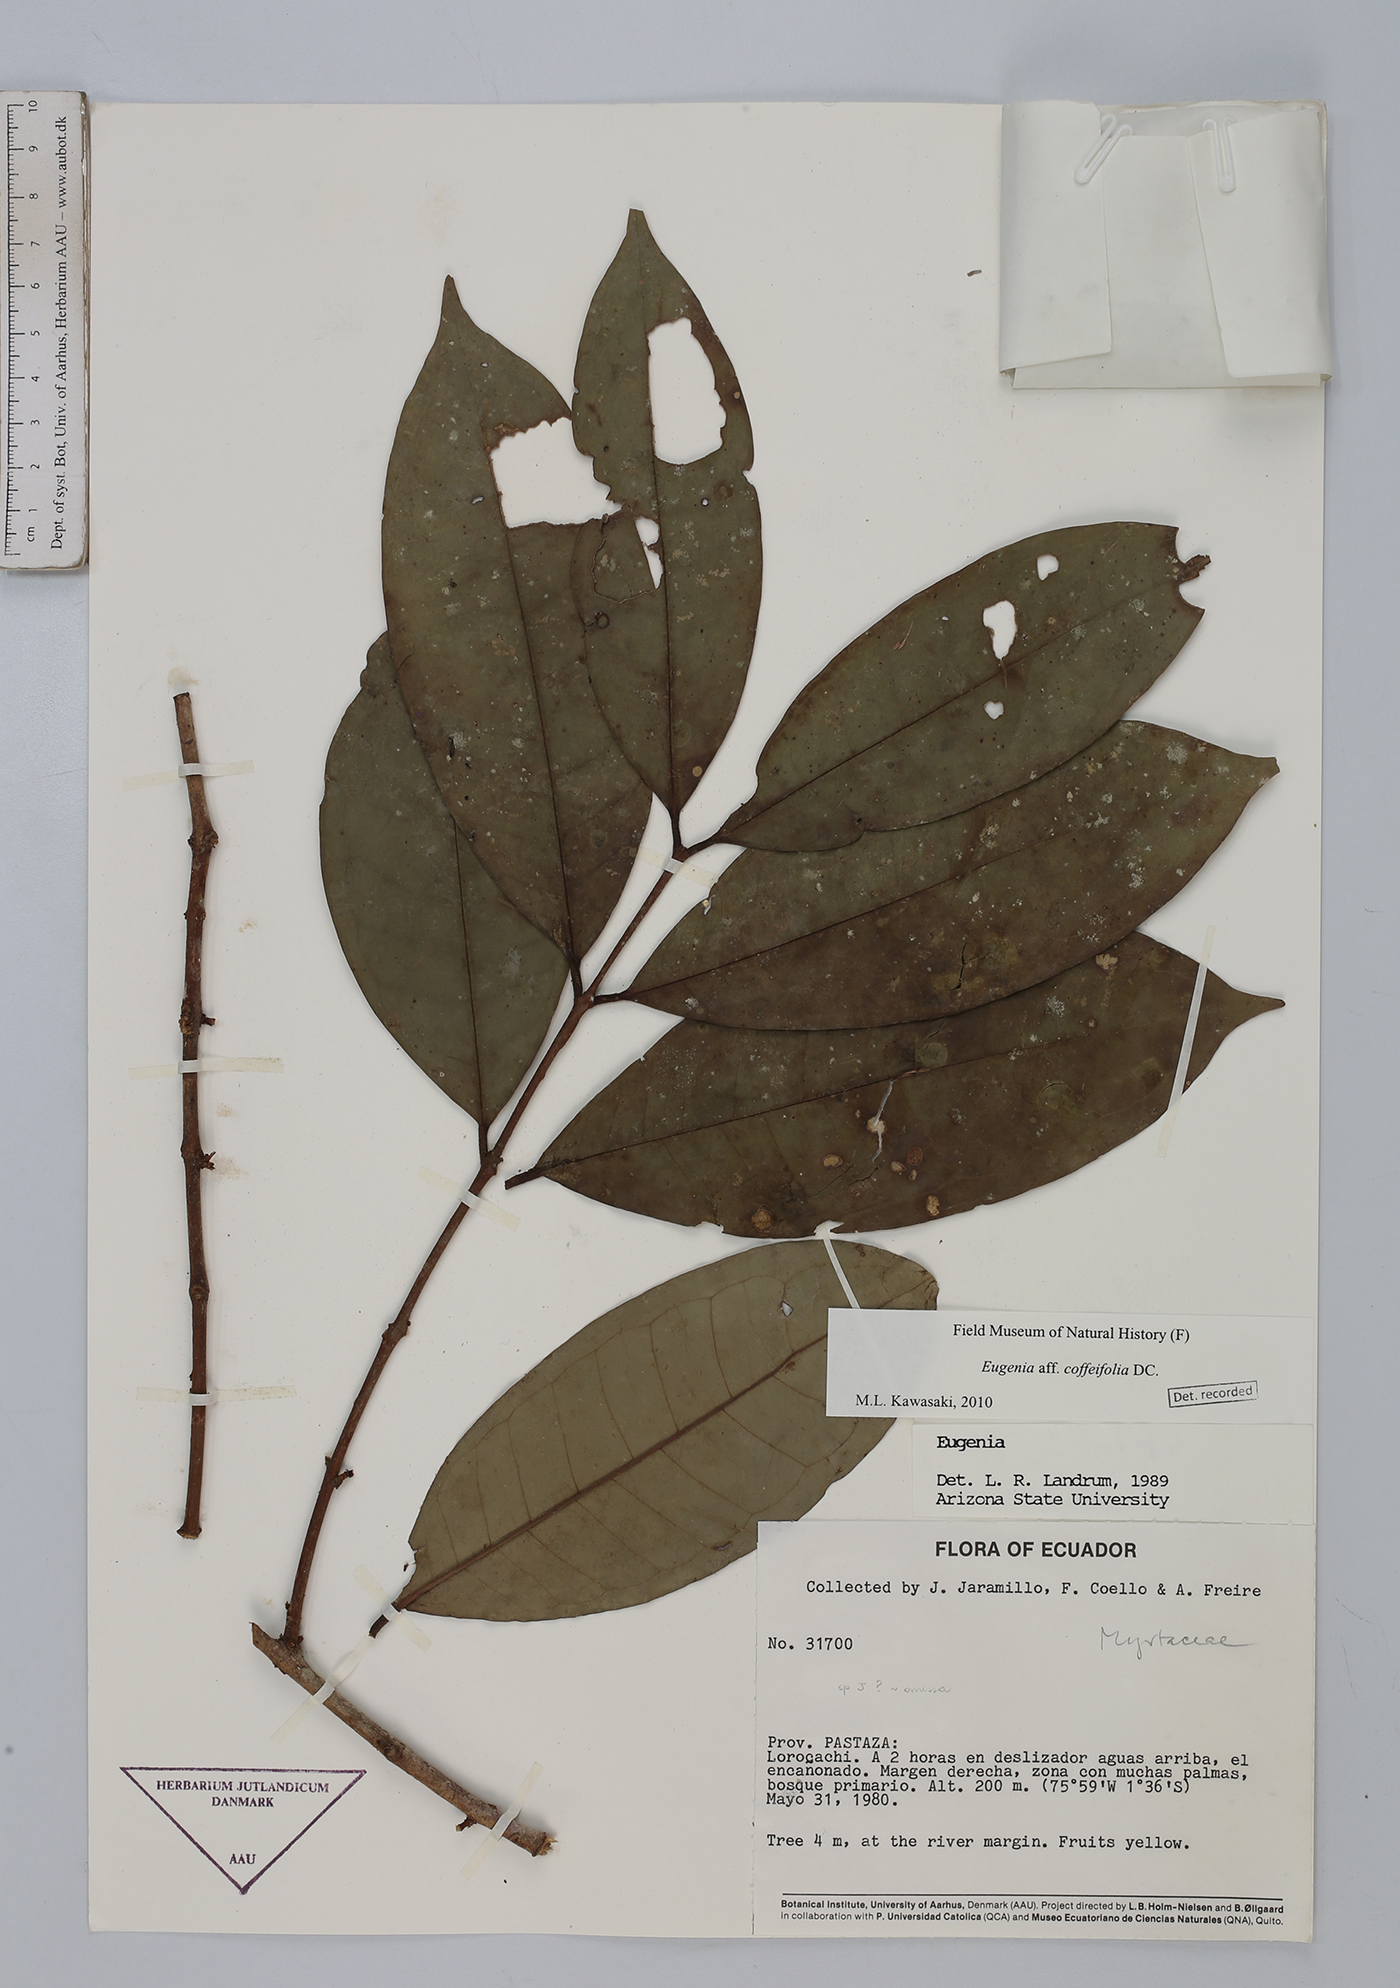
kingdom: Plantae
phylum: Tracheophyta
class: Magnoliopsida
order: Myrtales
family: Myrtaceae
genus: Eugenia
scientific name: Eugenia coffeifolia
